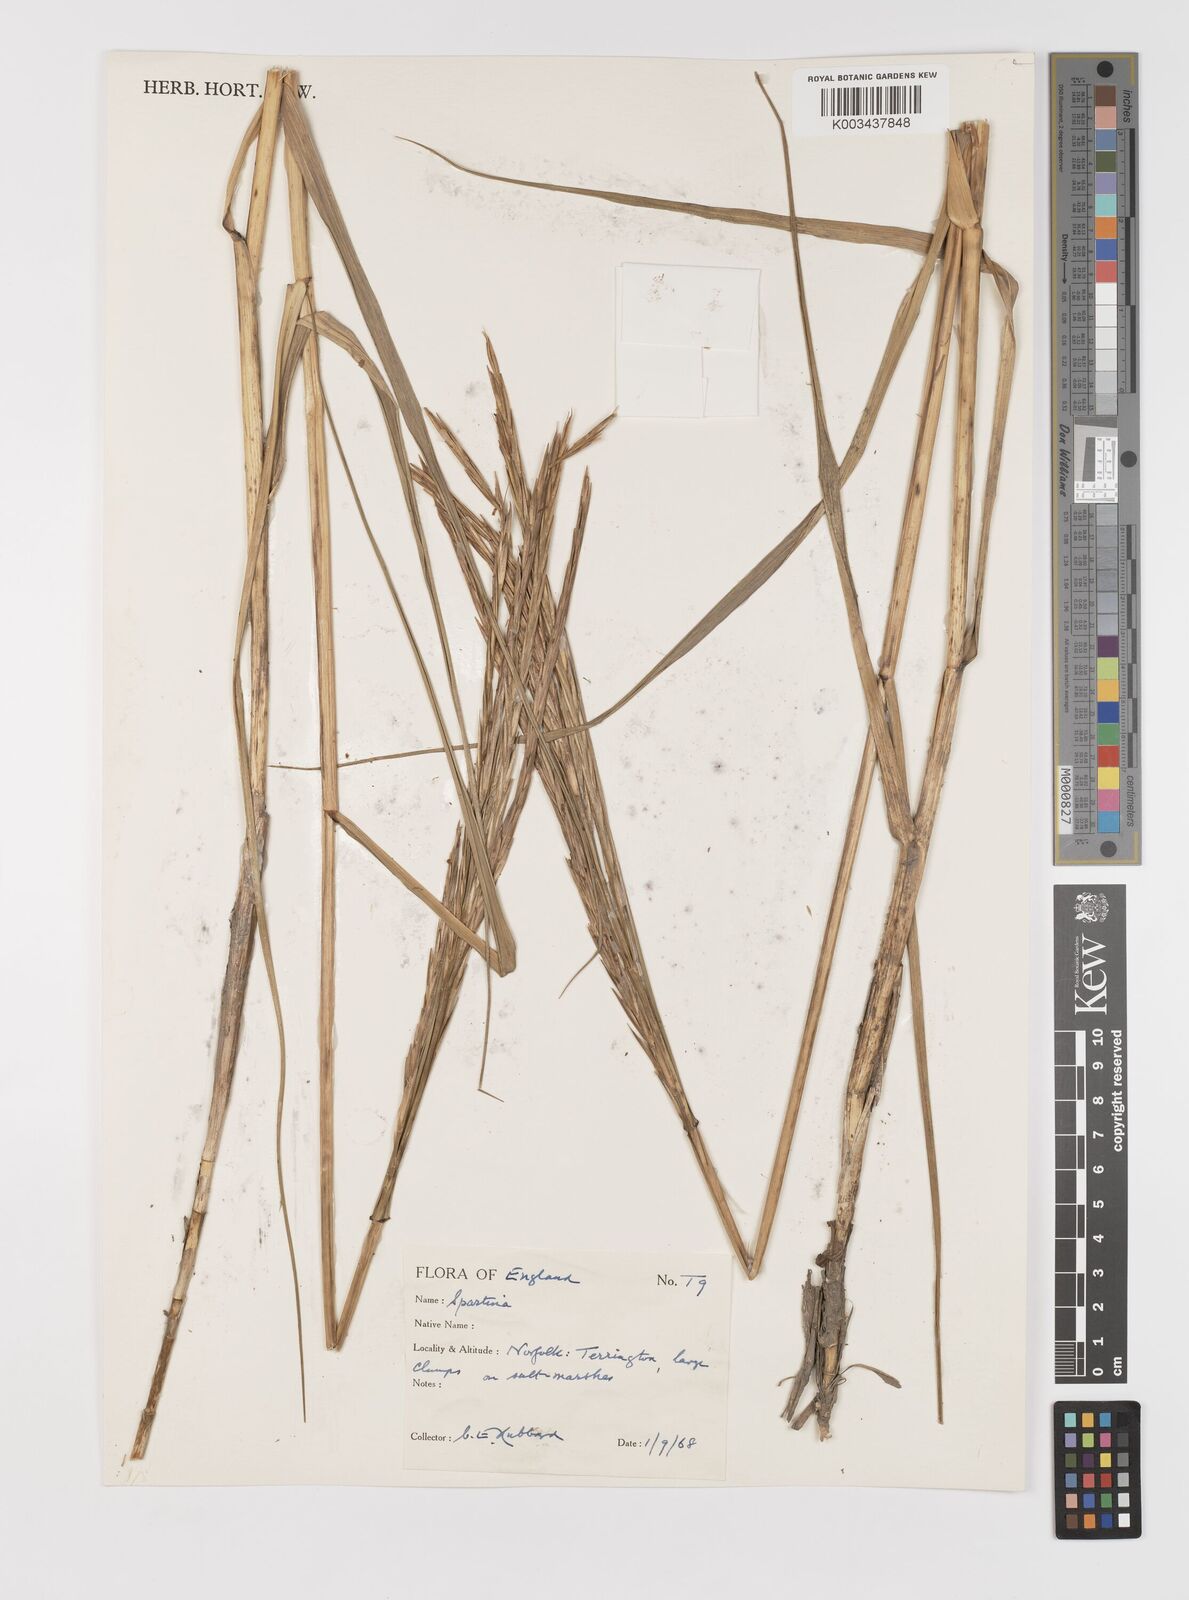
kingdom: Animalia
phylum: Mollusca
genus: Spartina
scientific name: Spartina
